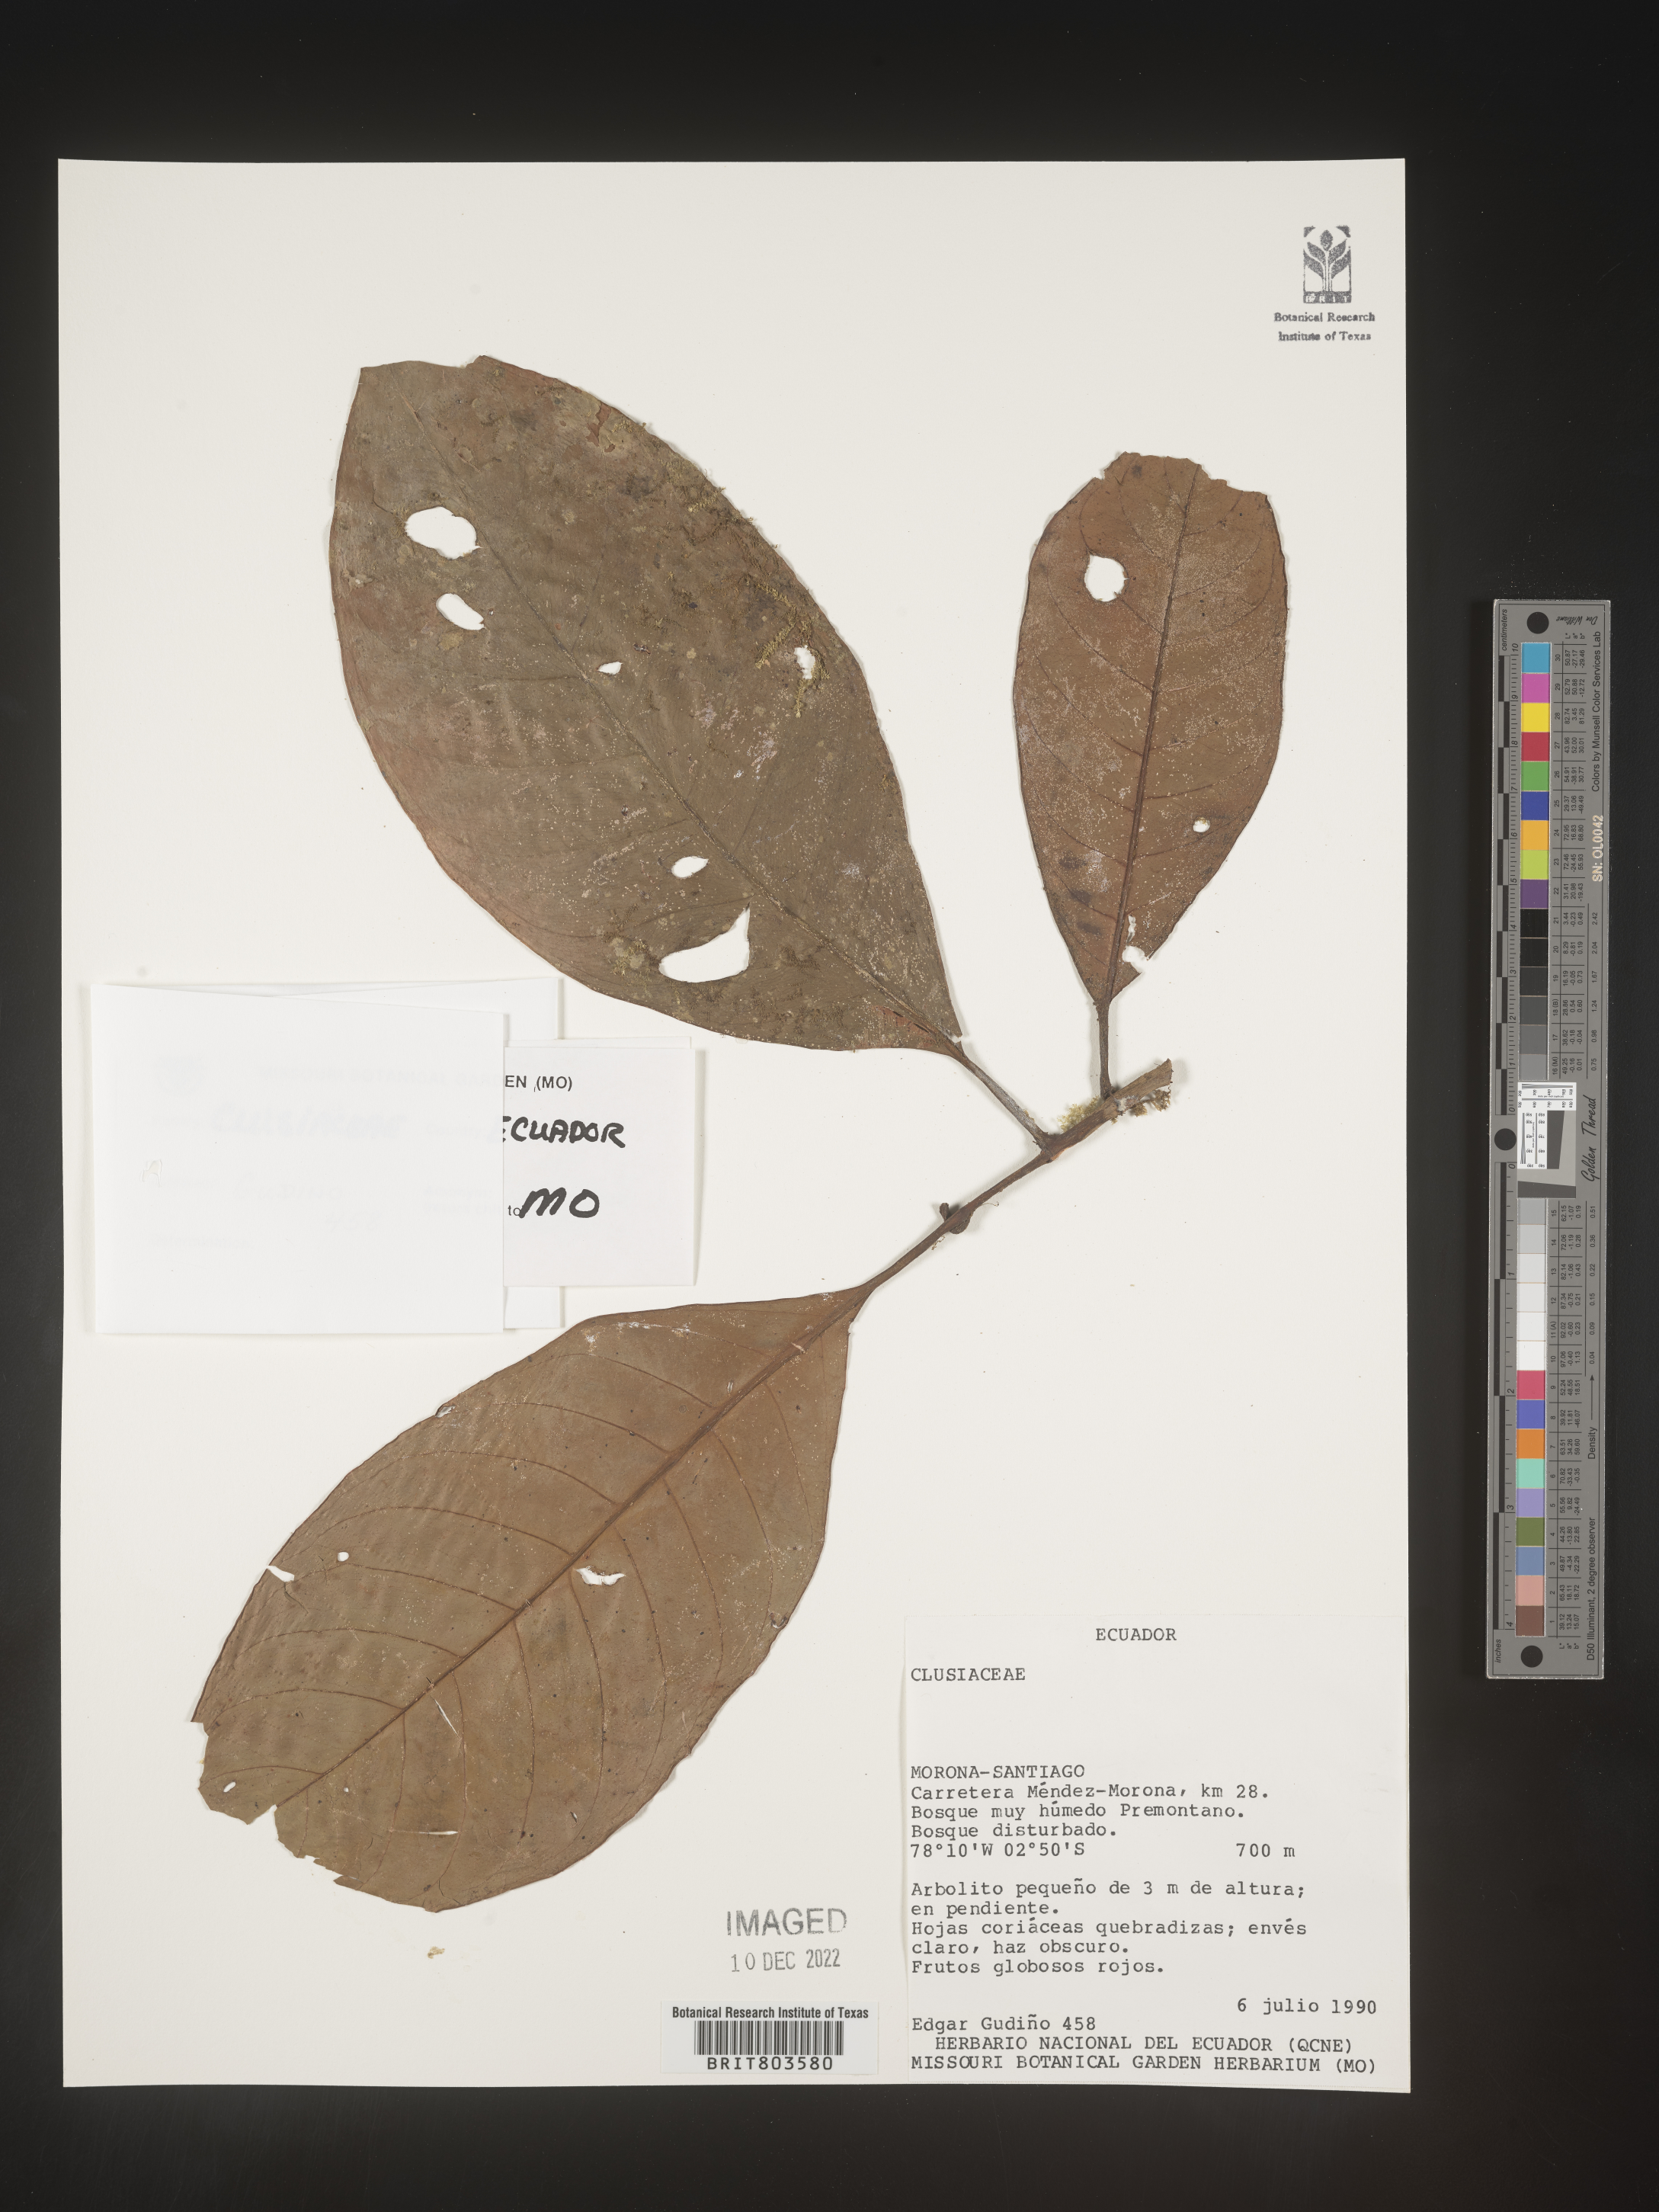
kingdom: Plantae
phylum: Tracheophyta
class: Magnoliopsida
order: Malpighiales
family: Clusiaceae
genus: Tovomita
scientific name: Tovomita
